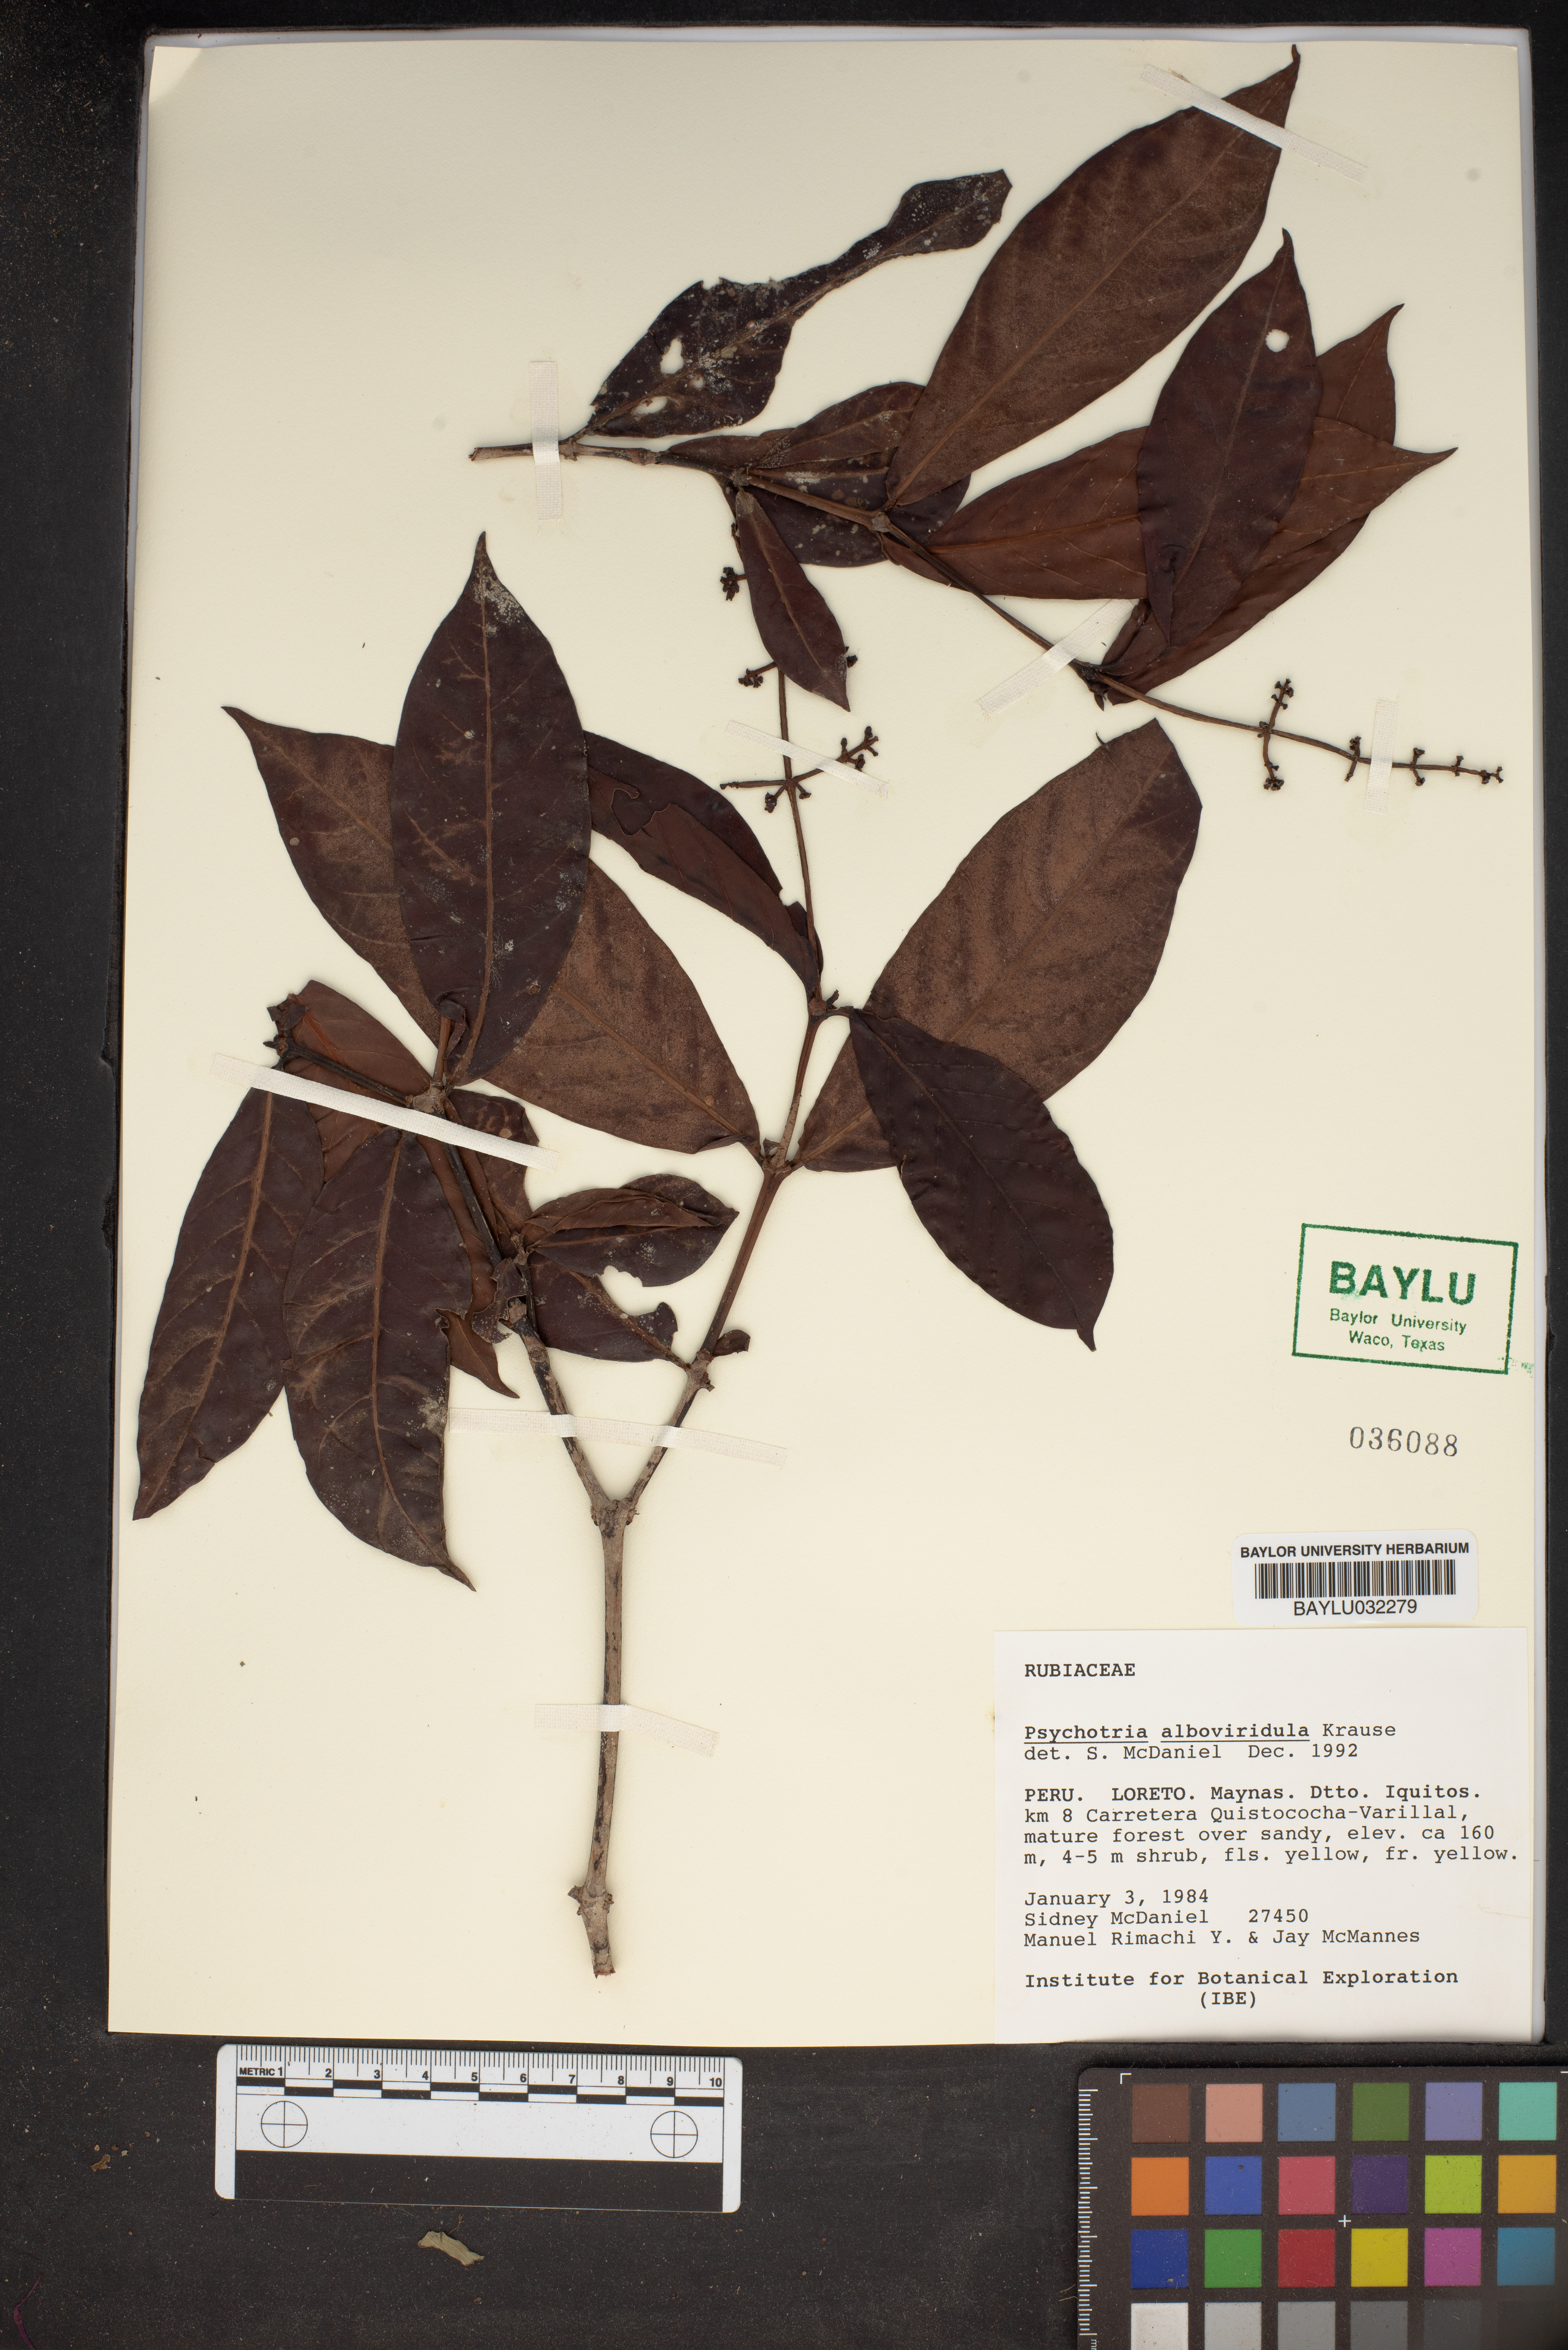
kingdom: Plantae
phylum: Tracheophyta
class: Magnoliopsida
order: Gentianales
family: Rubiaceae
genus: Psychotria
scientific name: Psychotria remota
